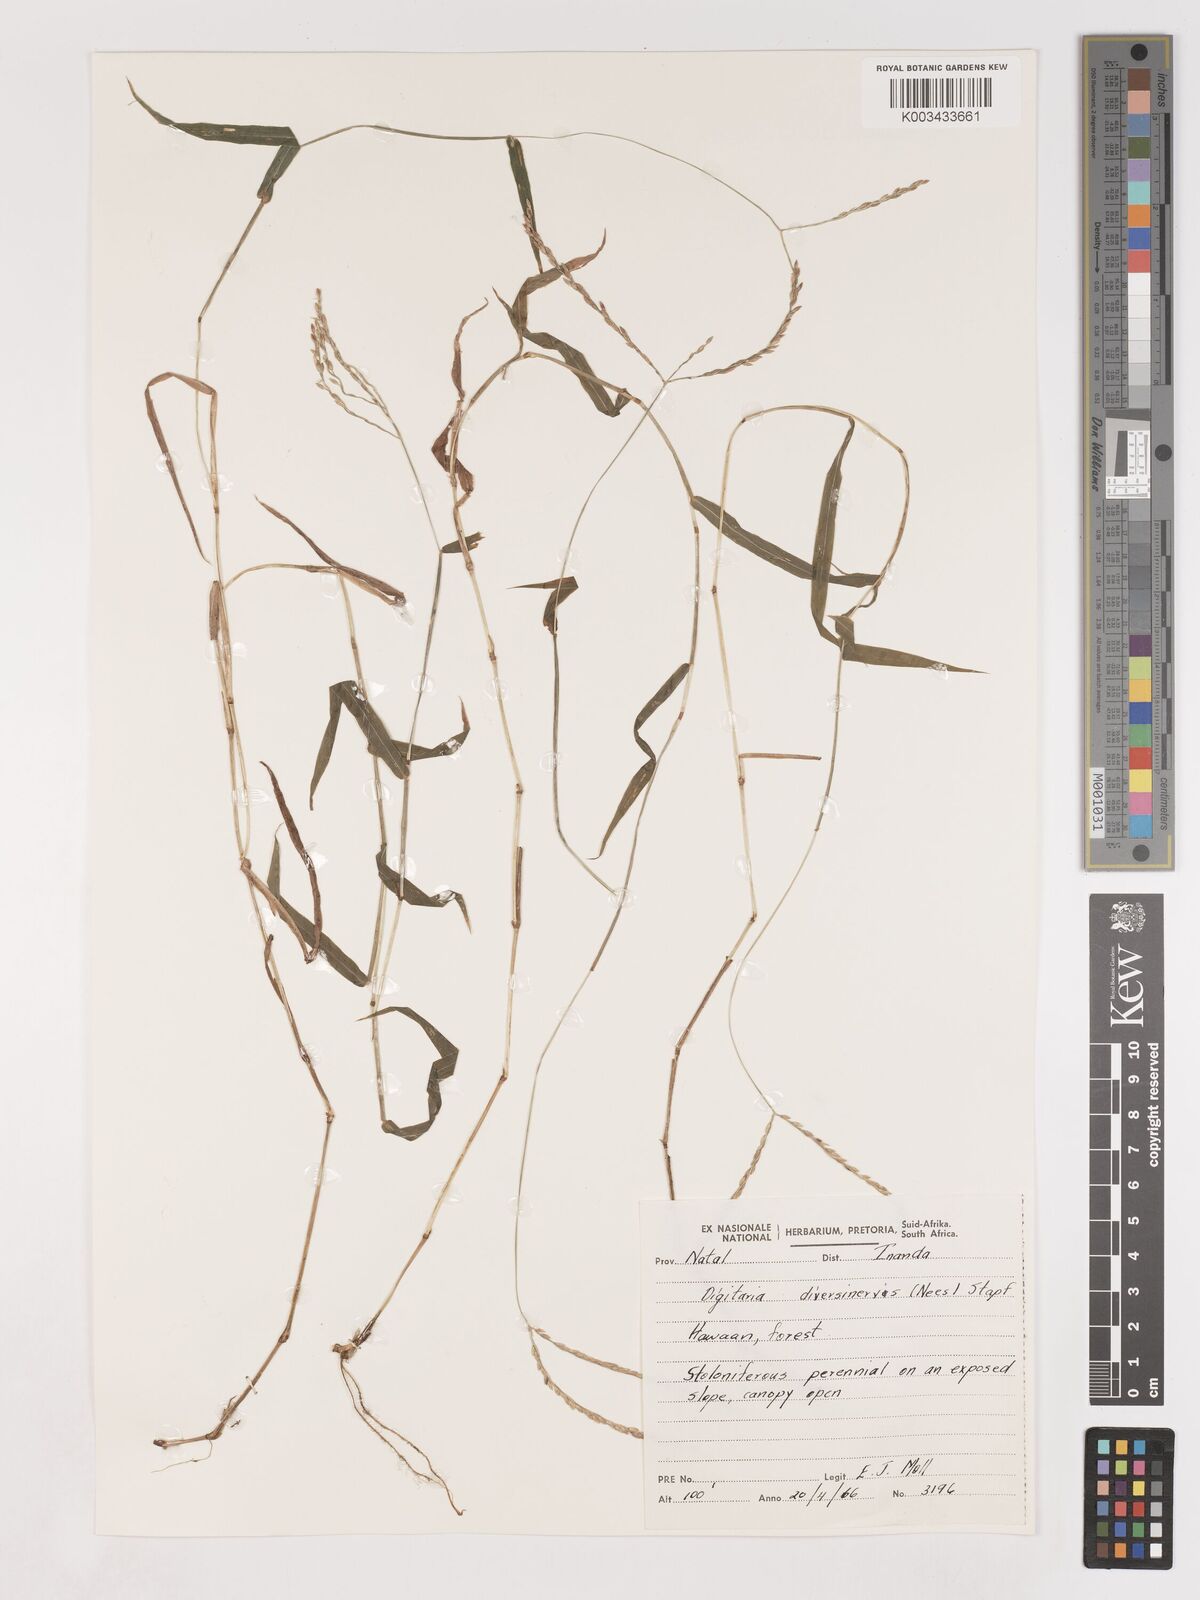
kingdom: Plantae
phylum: Tracheophyta
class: Liliopsida
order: Poales
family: Poaceae
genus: Digitaria
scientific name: Digitaria diversinervis
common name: Richmond finger grass
